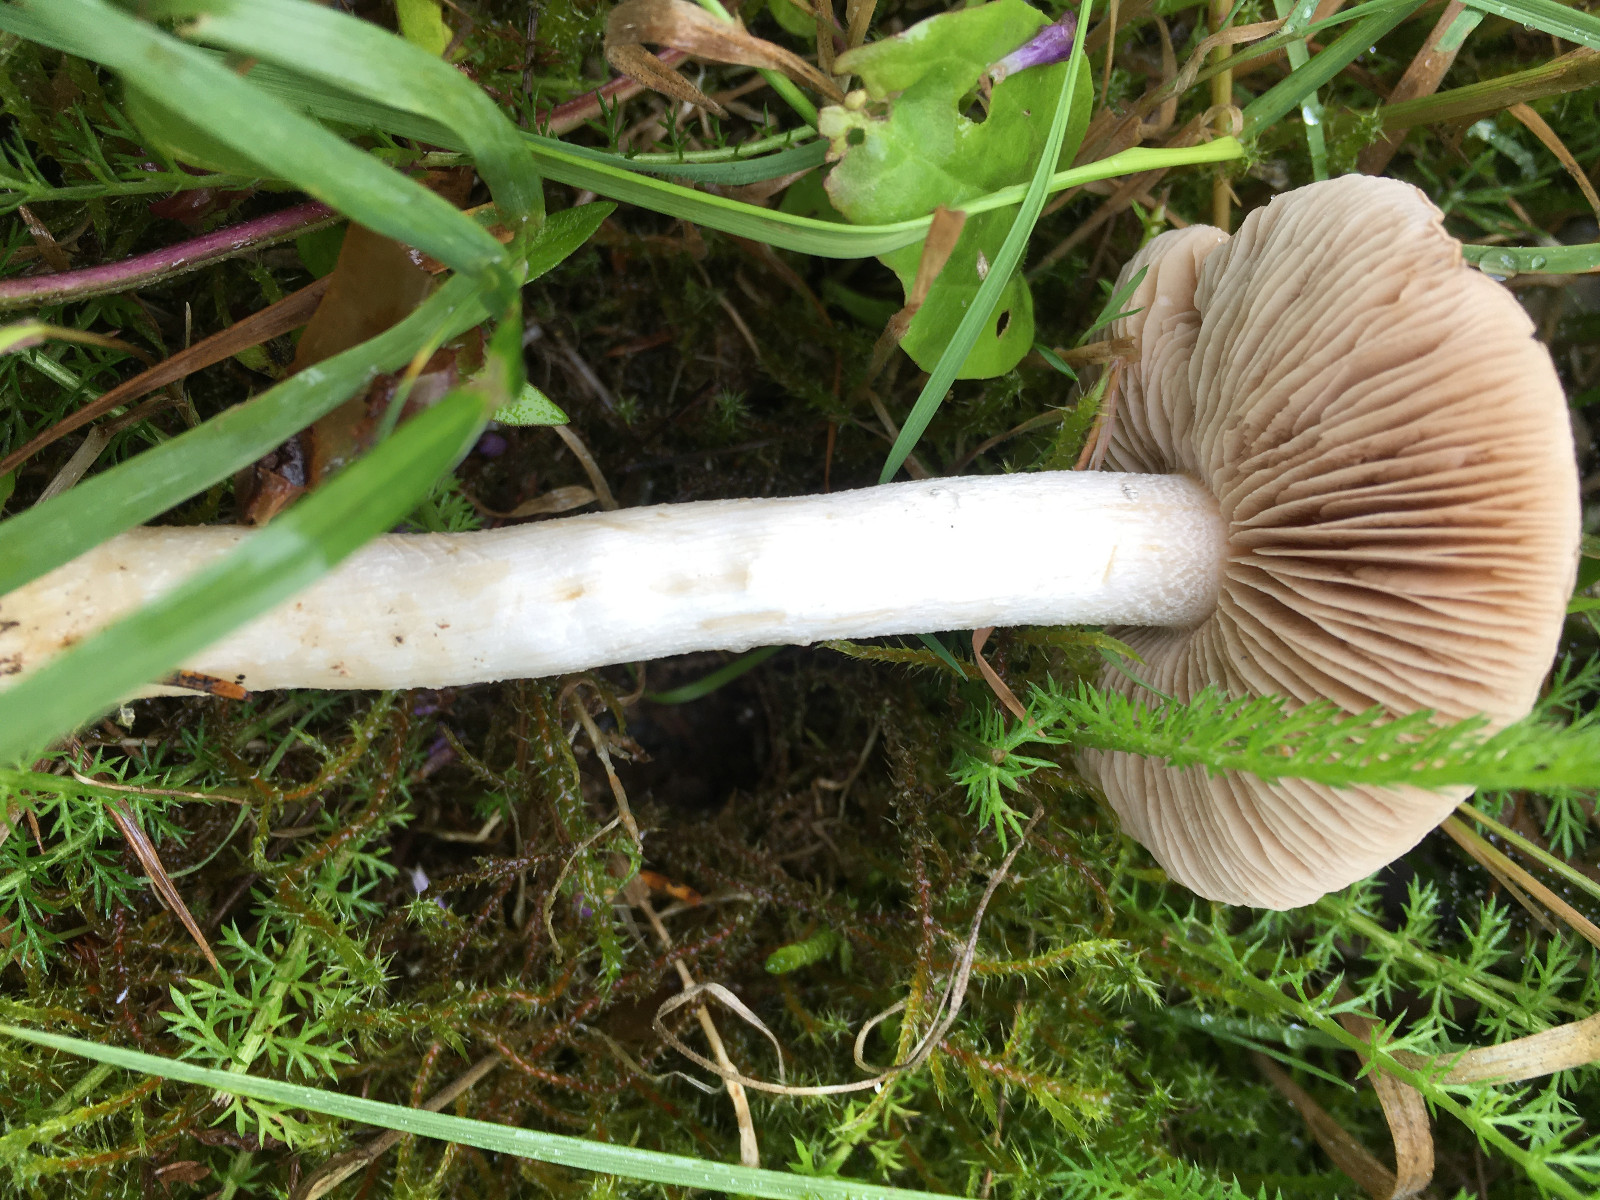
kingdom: Fungi
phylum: Basidiomycota
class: Agaricomycetes
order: Agaricales
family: Cortinariaceae
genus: Cortinarius
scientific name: Cortinarius stillatitius
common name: honningduftende slørhat
